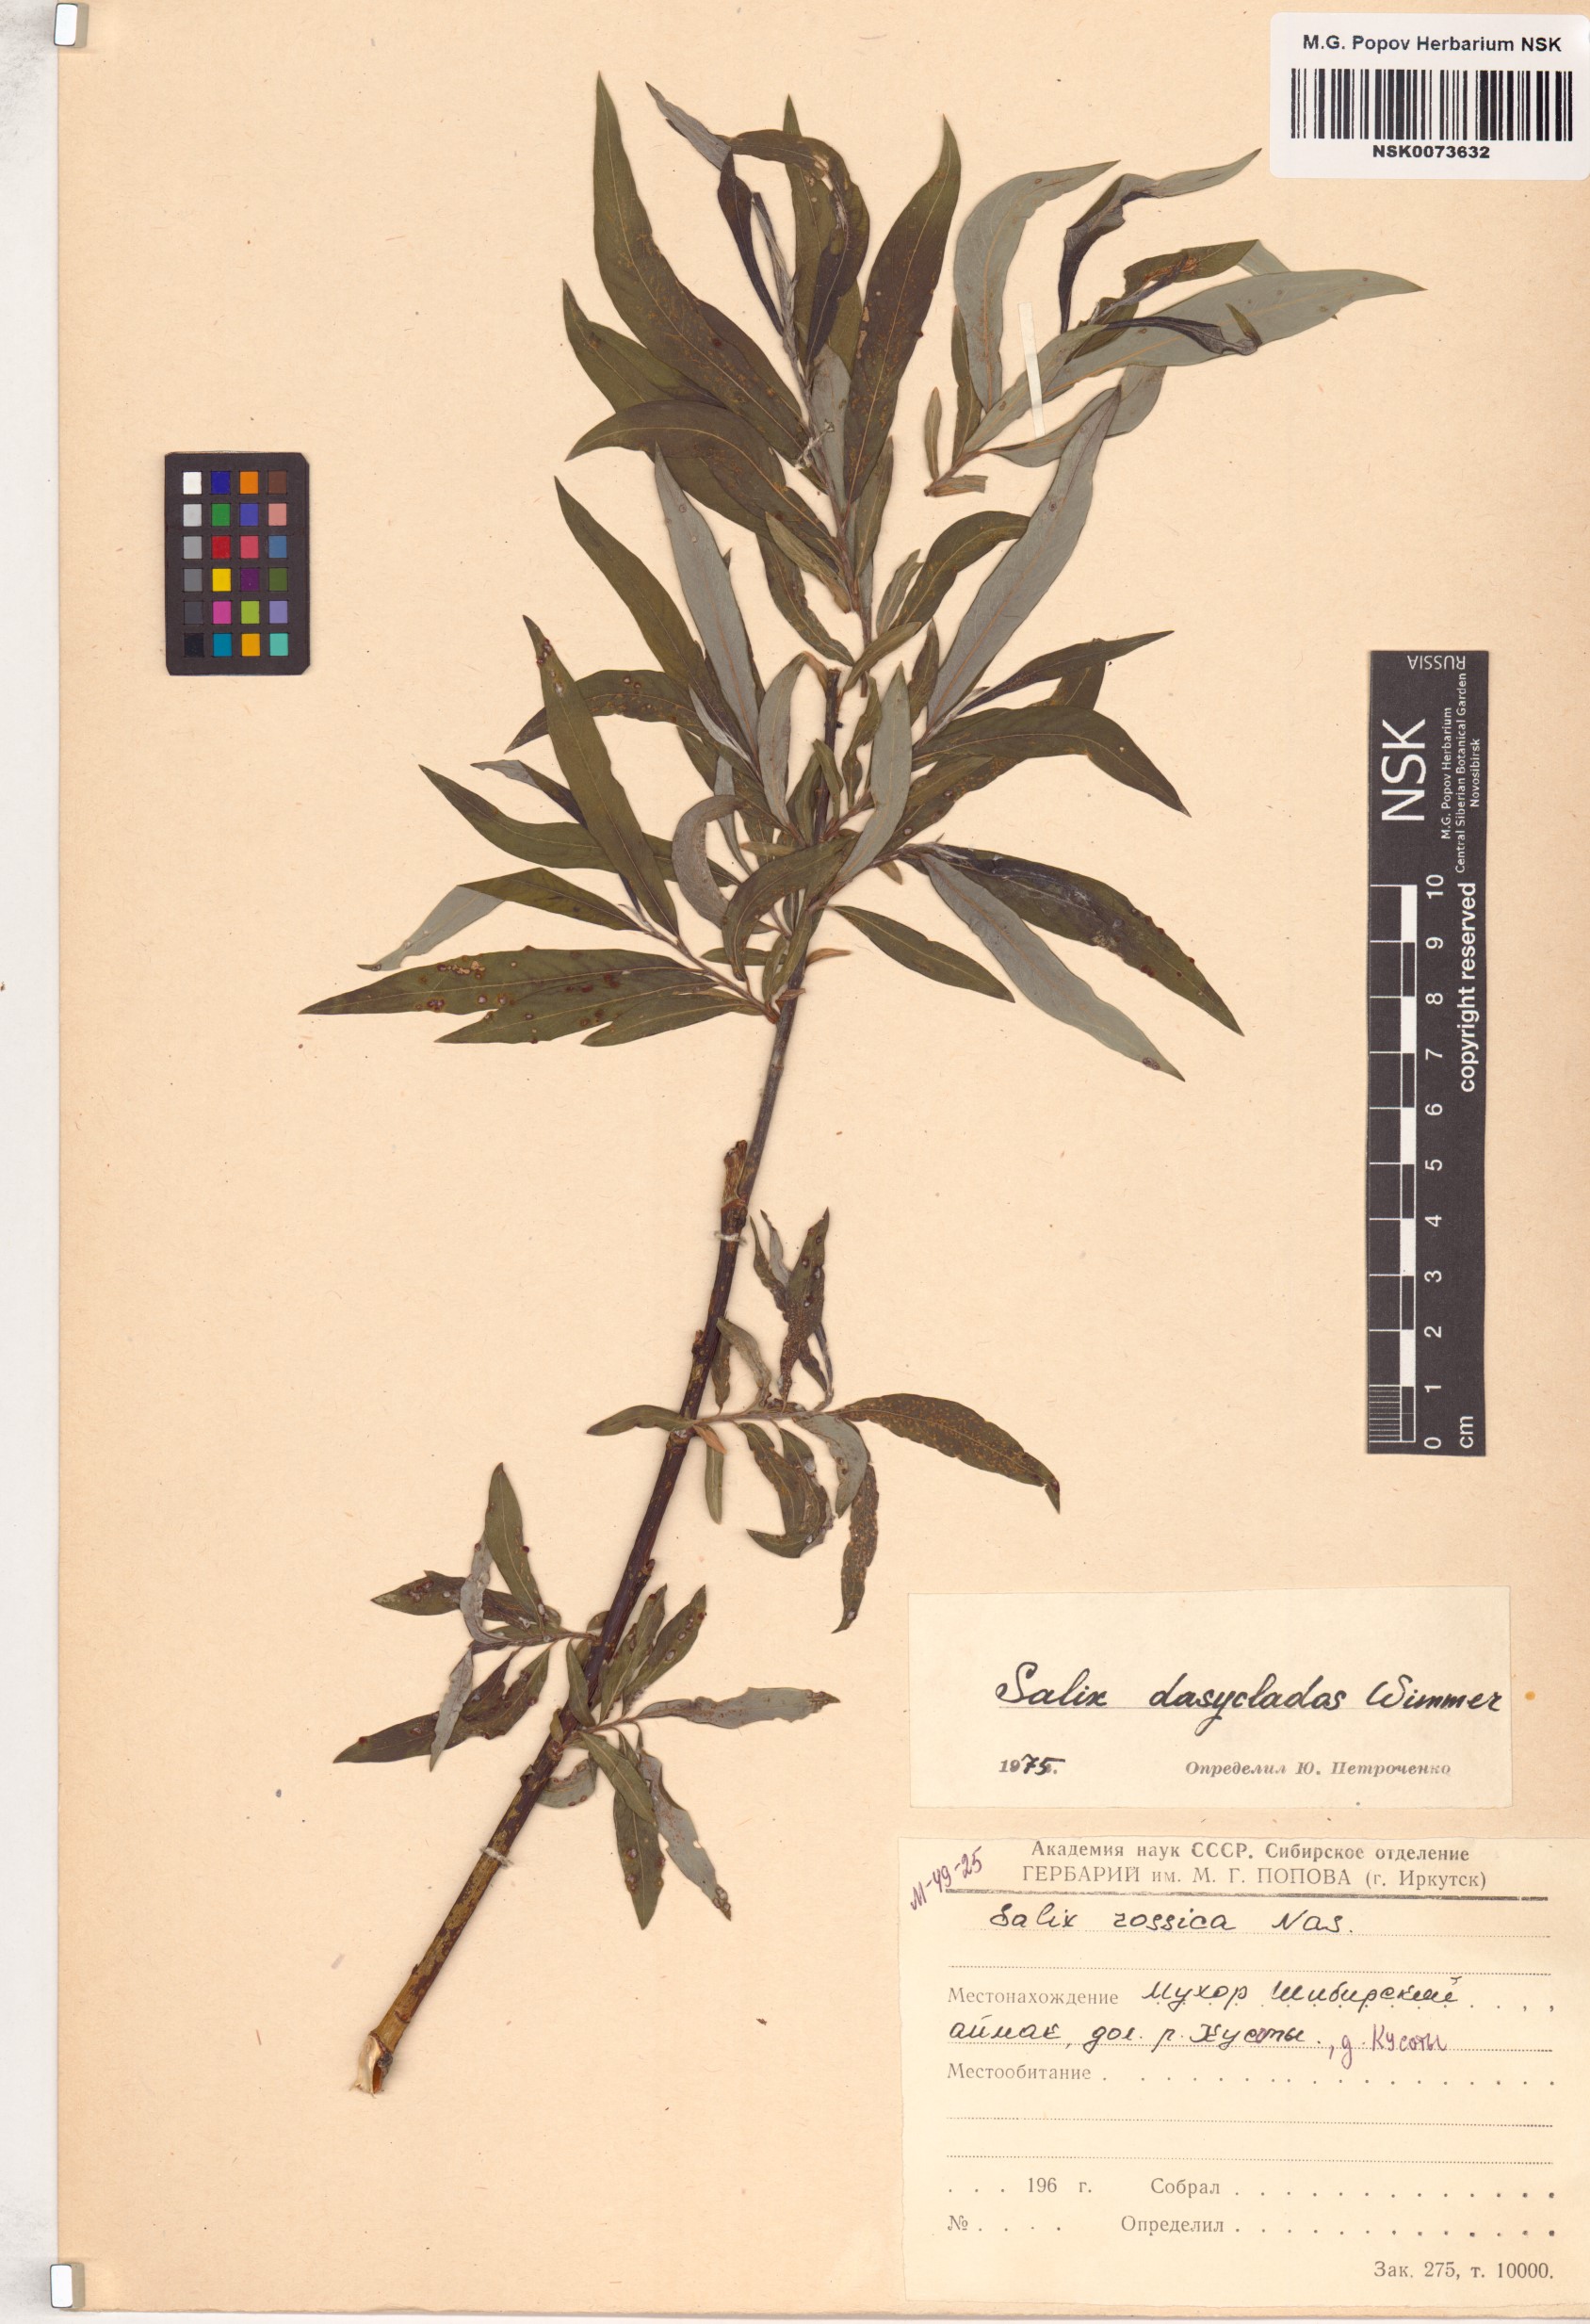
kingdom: Plantae
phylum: Tracheophyta
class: Magnoliopsida
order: Malpighiales
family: Salicaceae
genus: Salix
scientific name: Salix gmelinii
